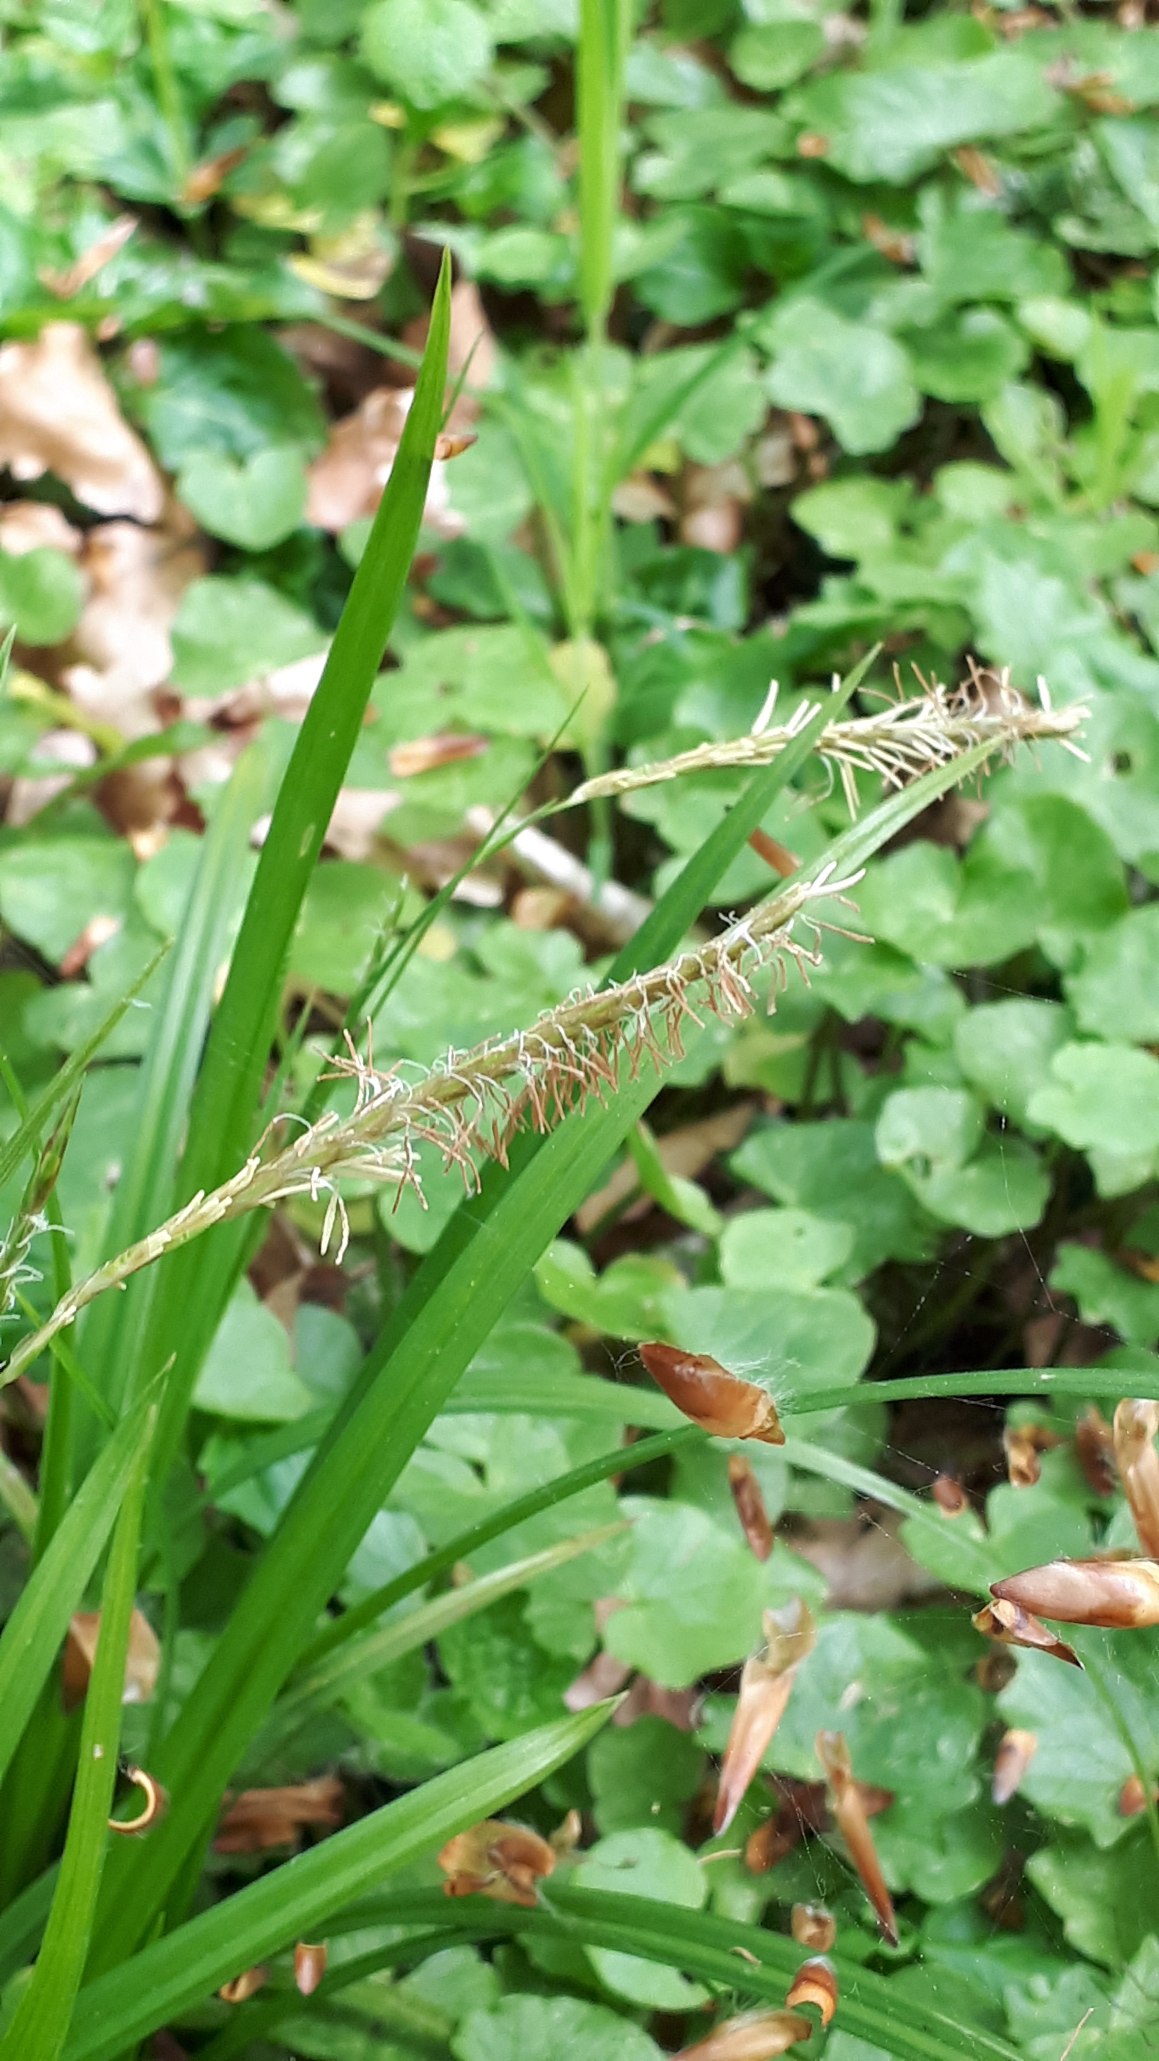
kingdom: Plantae
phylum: Tracheophyta
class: Liliopsida
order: Poales
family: Cyperaceae
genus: Carex
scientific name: Carex sylvatica
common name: Skov-star
